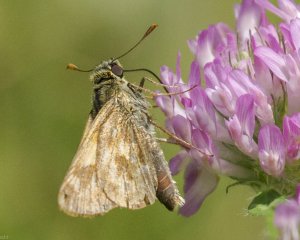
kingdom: Animalia
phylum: Arthropoda
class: Insecta
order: Lepidoptera
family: Hesperiidae
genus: Polites
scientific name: Polites
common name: Long Dash Skipper
